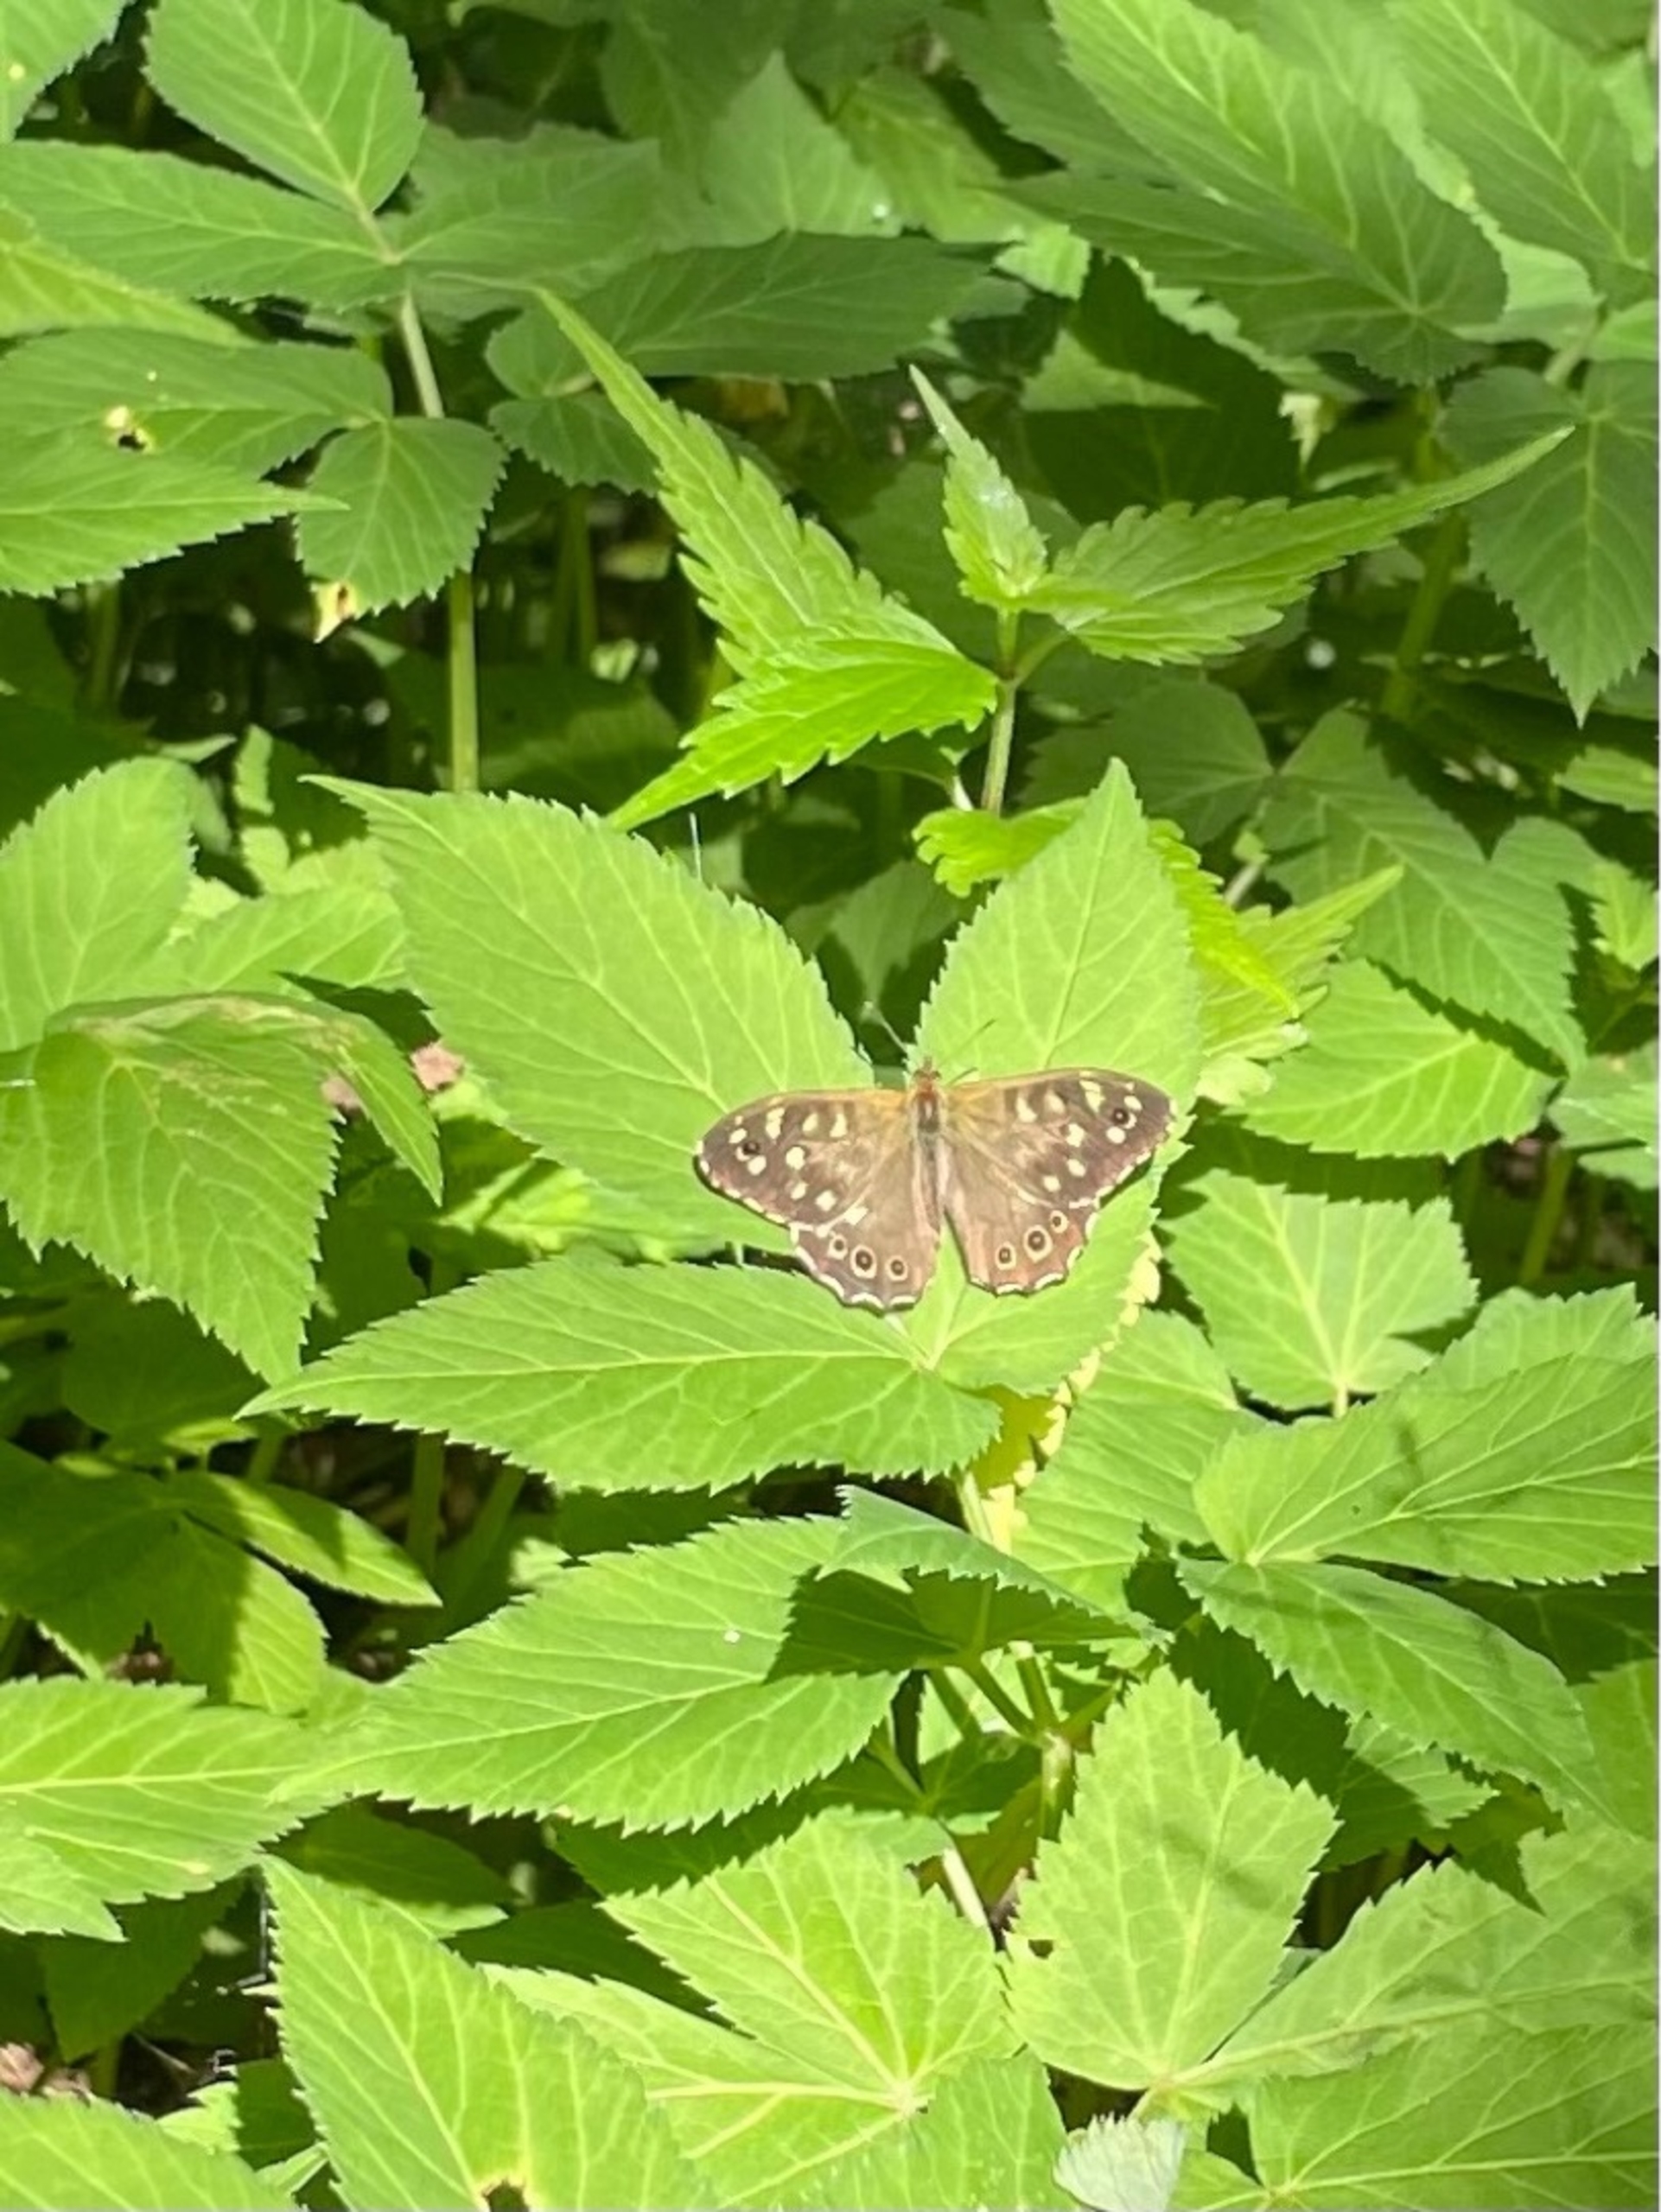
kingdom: Animalia
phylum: Arthropoda
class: Insecta
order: Lepidoptera
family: Nymphalidae
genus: Pararge
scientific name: Pararge aegeria
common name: Skovrandøje
